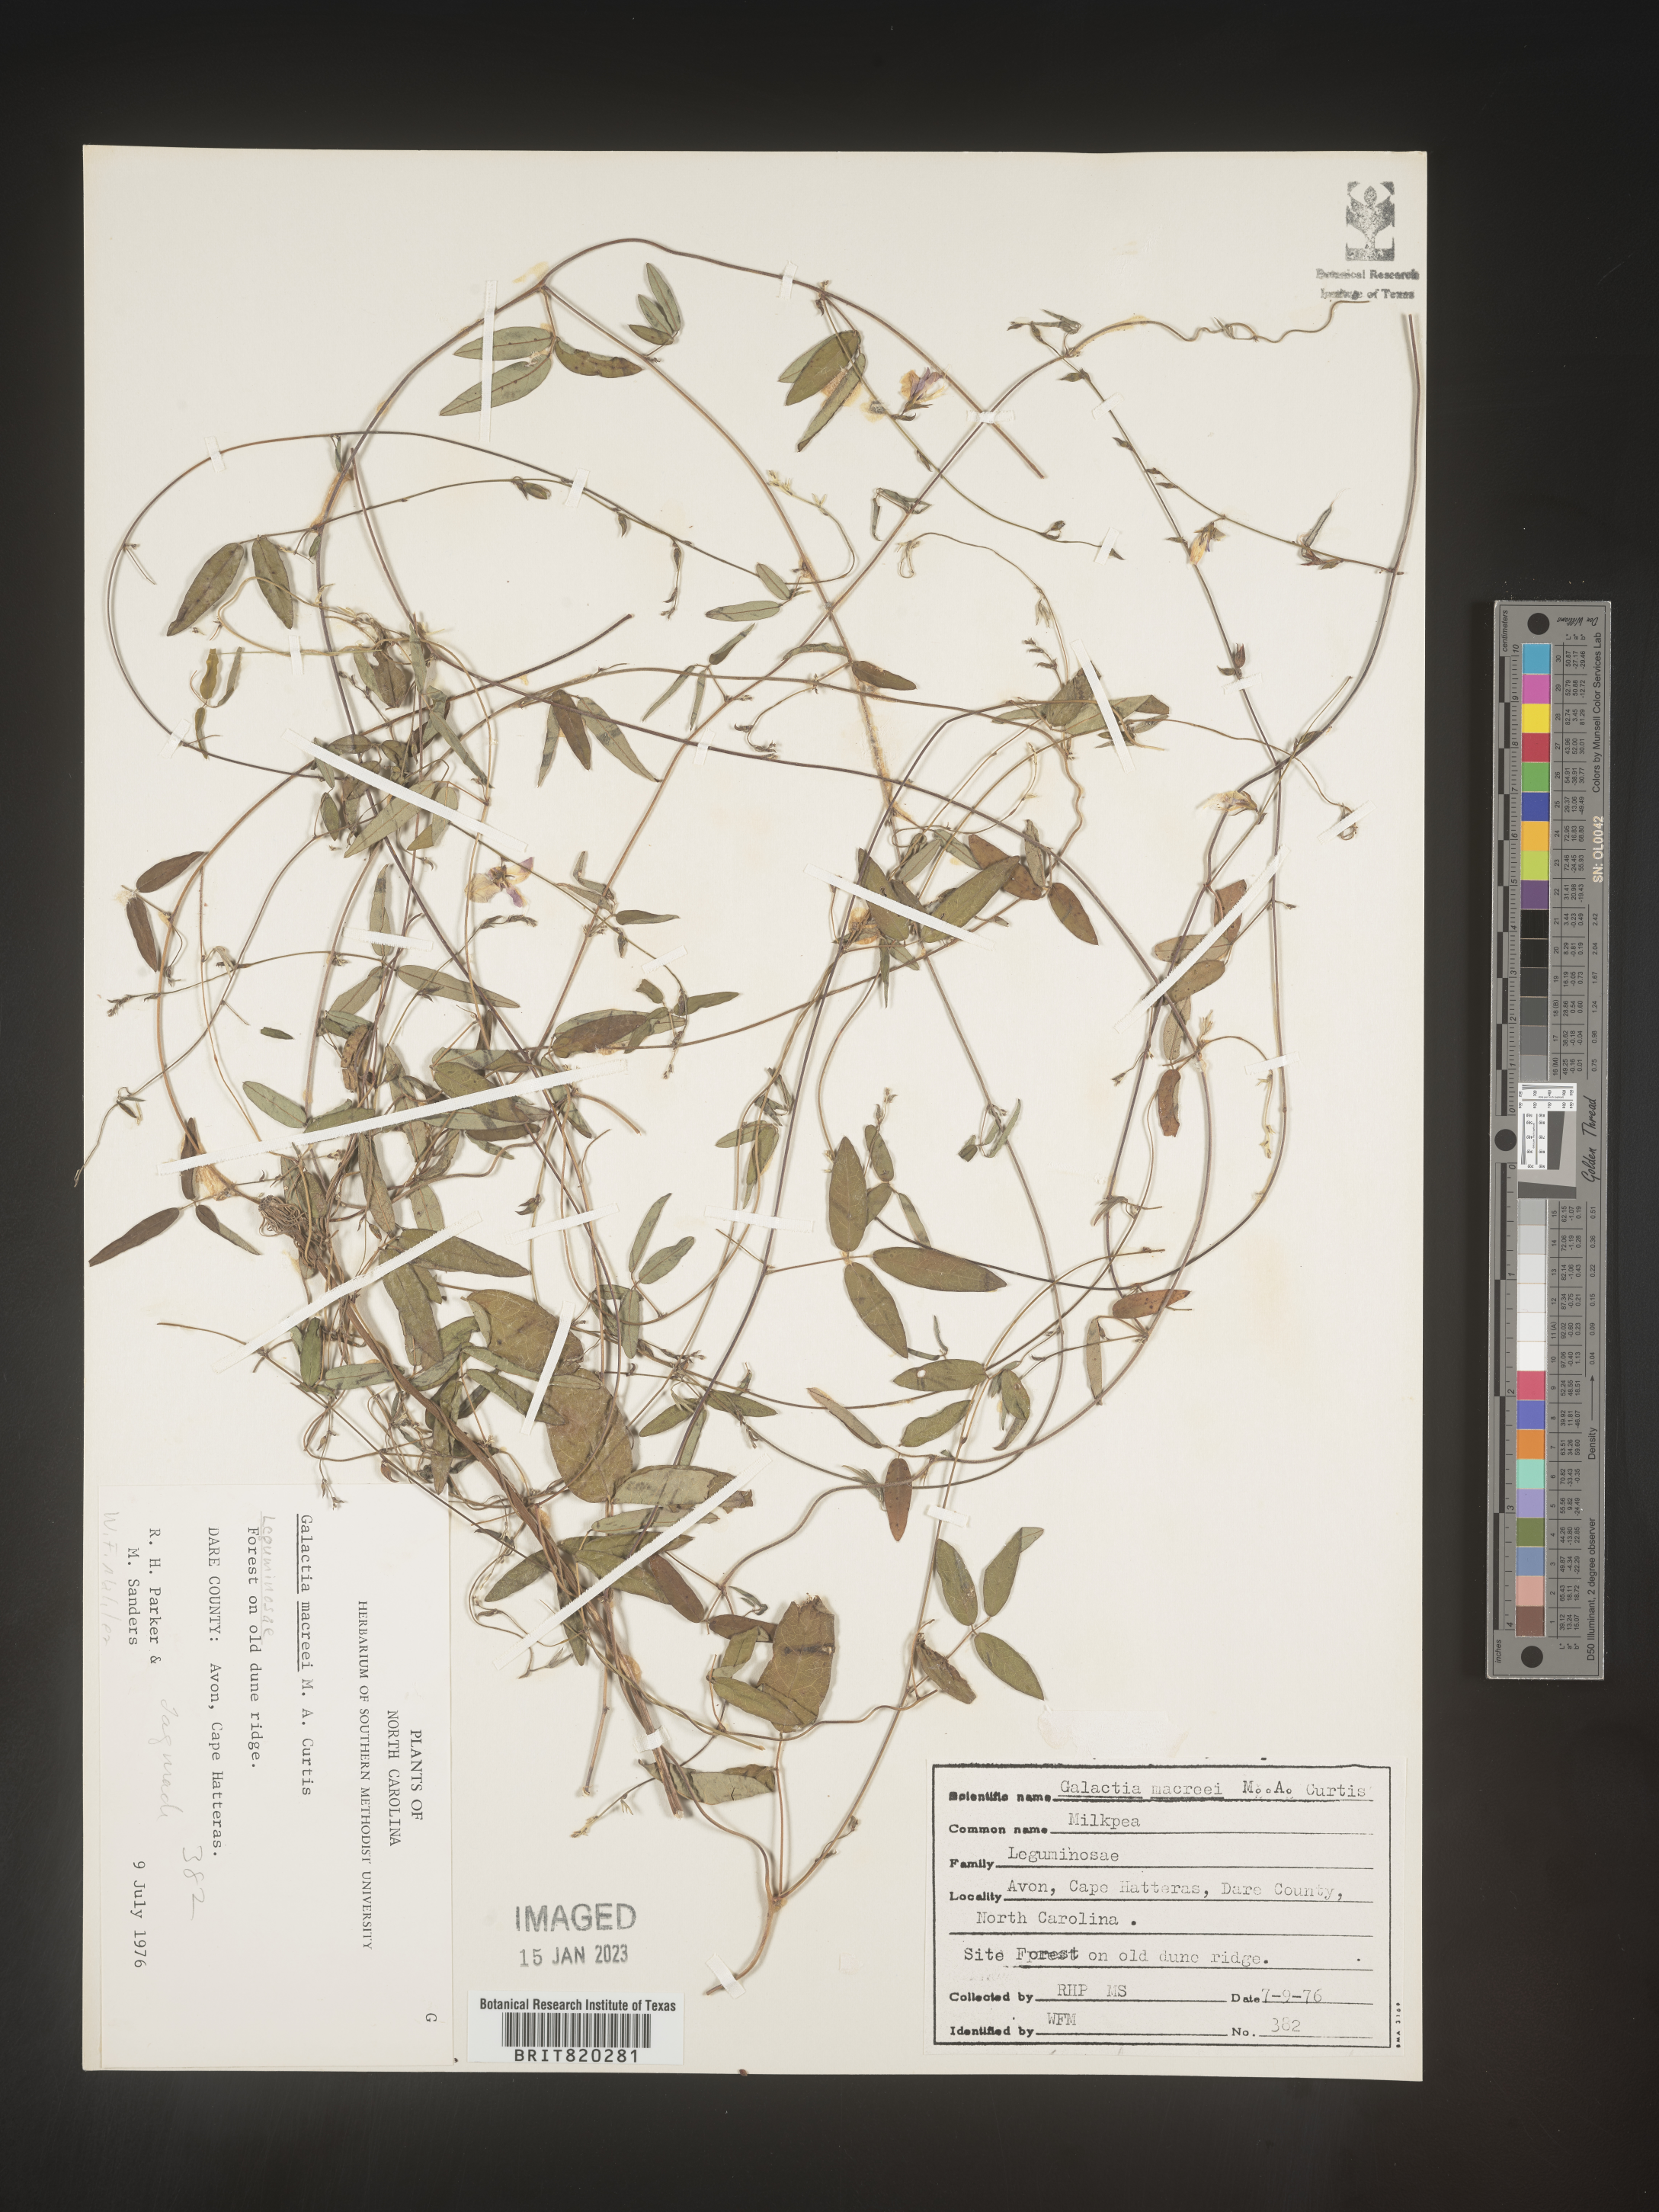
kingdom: Plantae
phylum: Tracheophyta
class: Magnoliopsida
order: Fabales
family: Fabaceae
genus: Galactia
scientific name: Galactia volubilis
